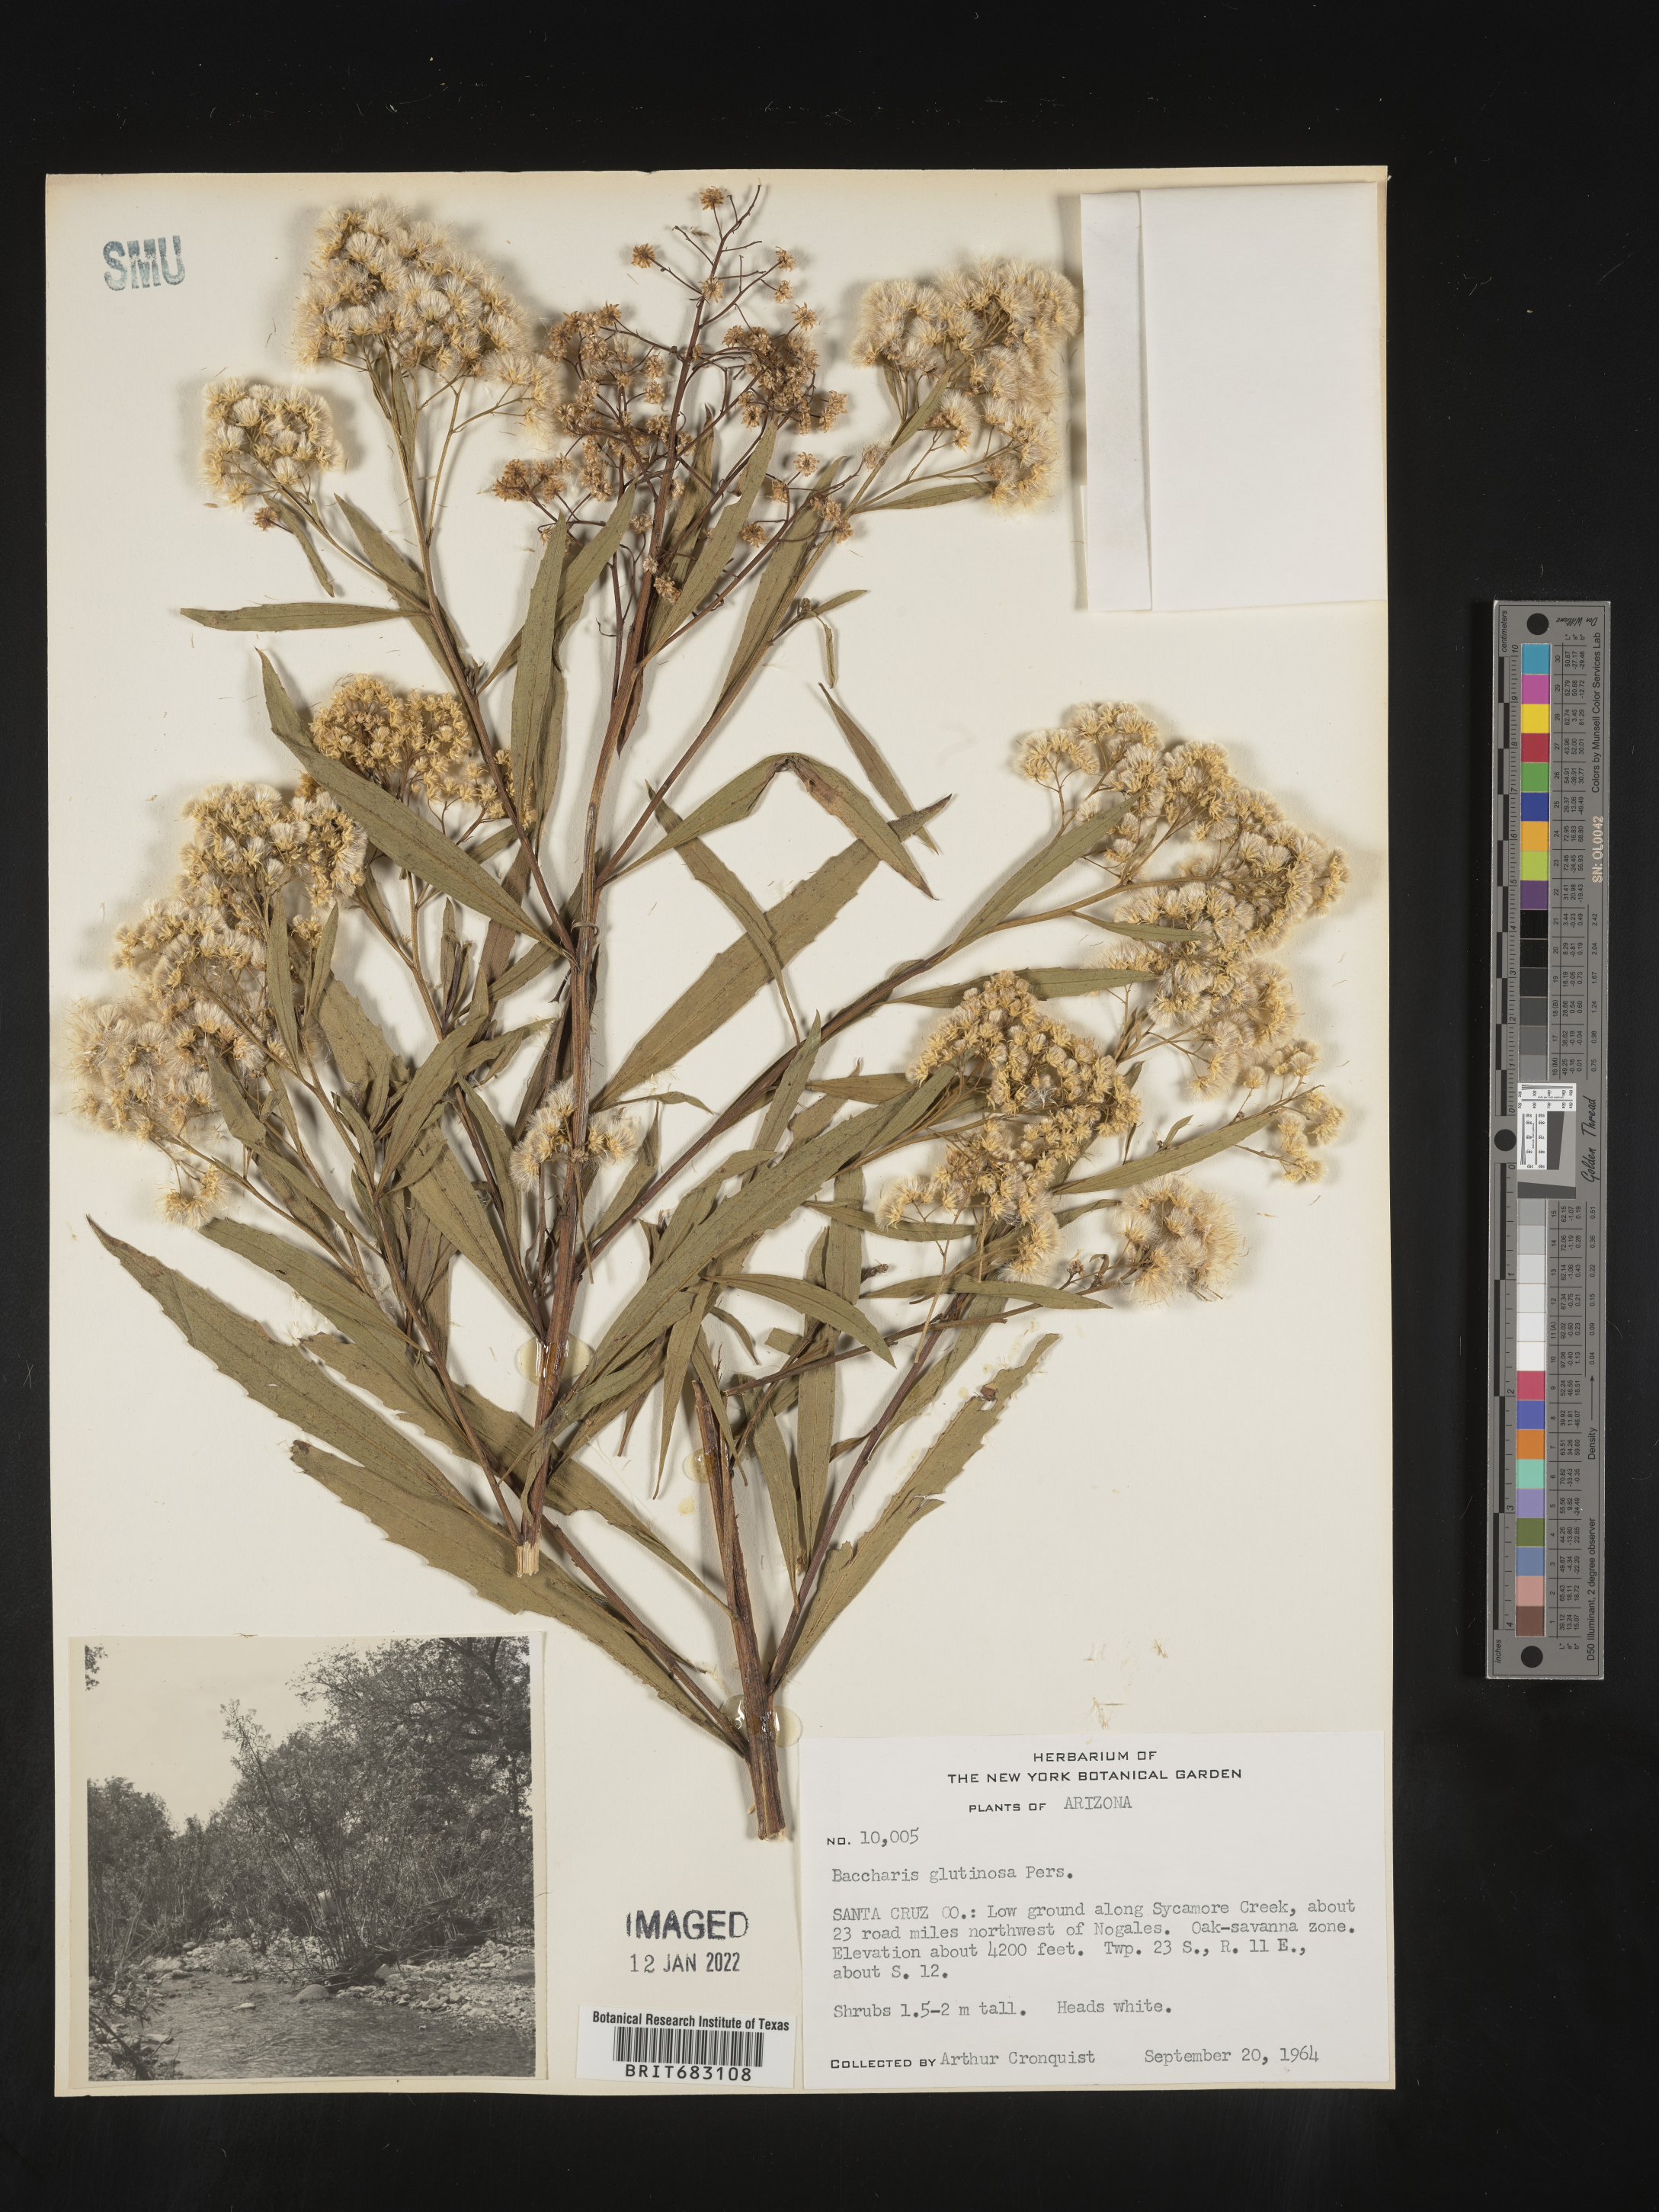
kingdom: Plantae
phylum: Tracheophyta
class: Magnoliopsida
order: Asterales
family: Asteraceae
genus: Baccharis
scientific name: Baccharis salicifolia
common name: Sticky baccharis
